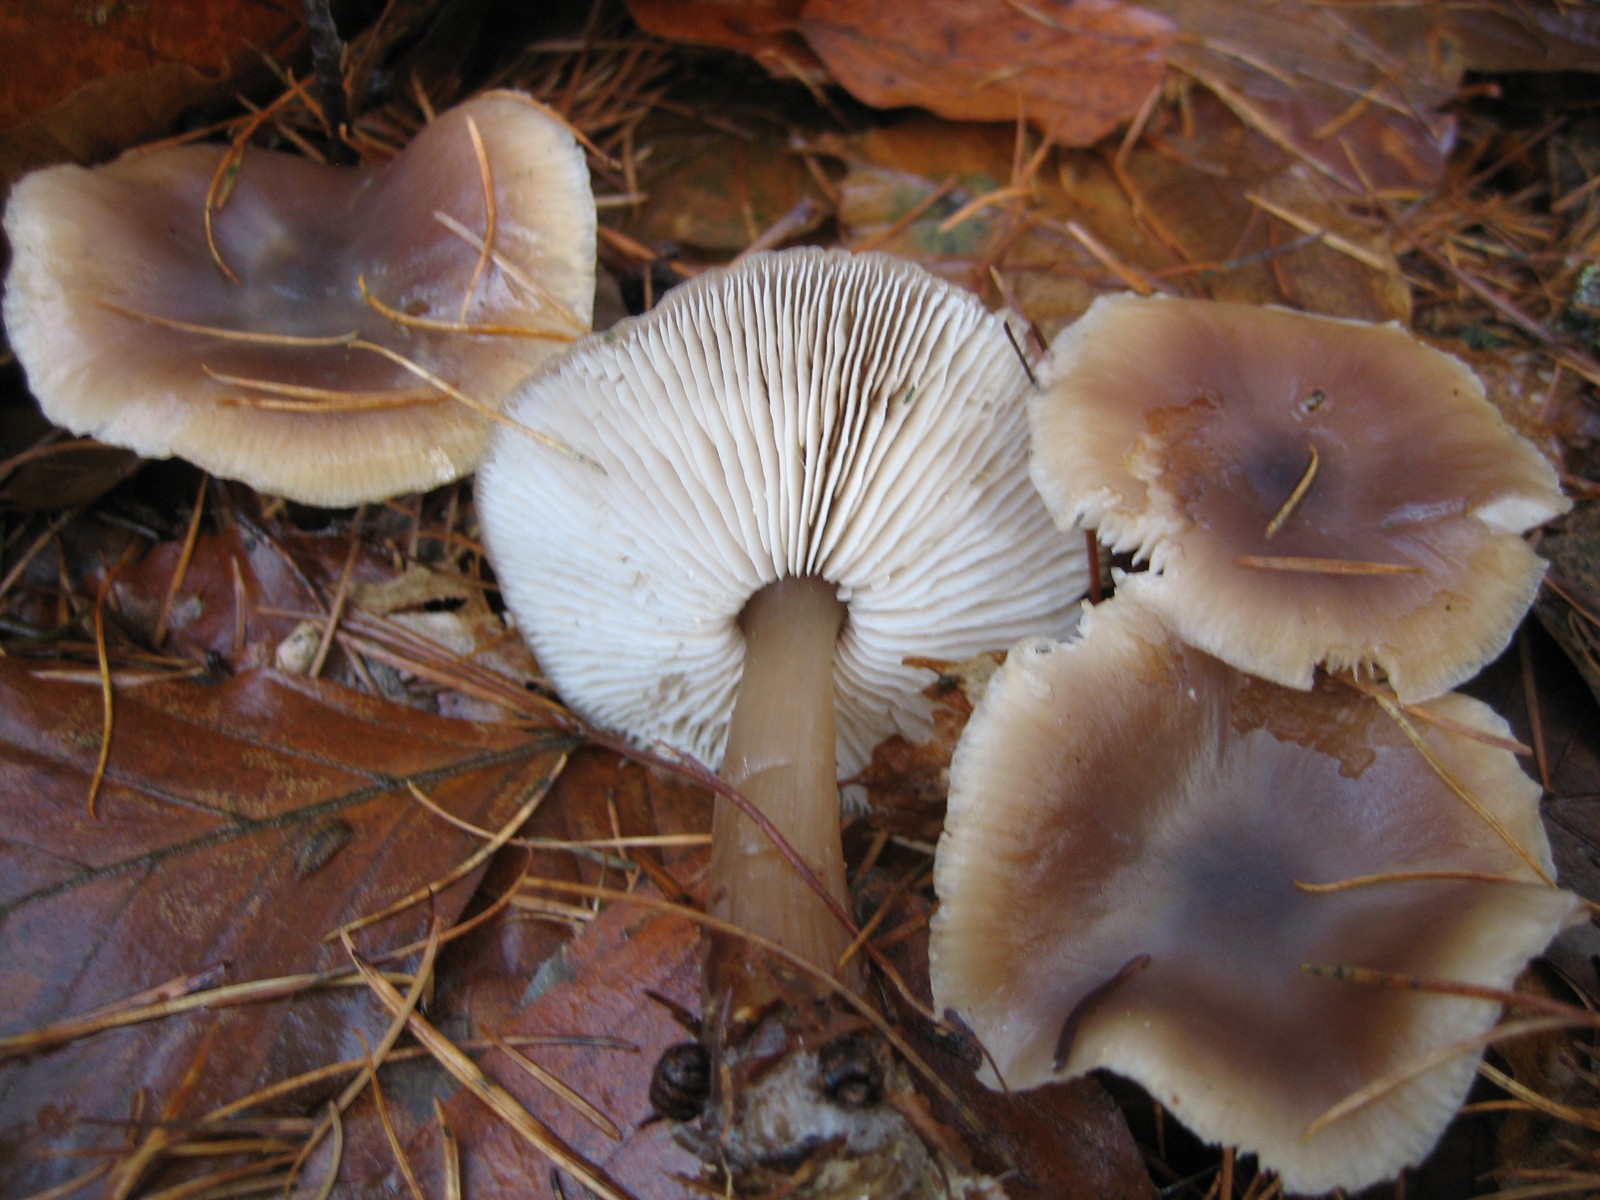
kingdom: Fungi
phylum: Basidiomycota
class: Agaricomycetes
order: Agaricales
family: Omphalotaceae
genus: Rhodocollybia
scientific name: Rhodocollybia asema
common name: horngrå fladhat
